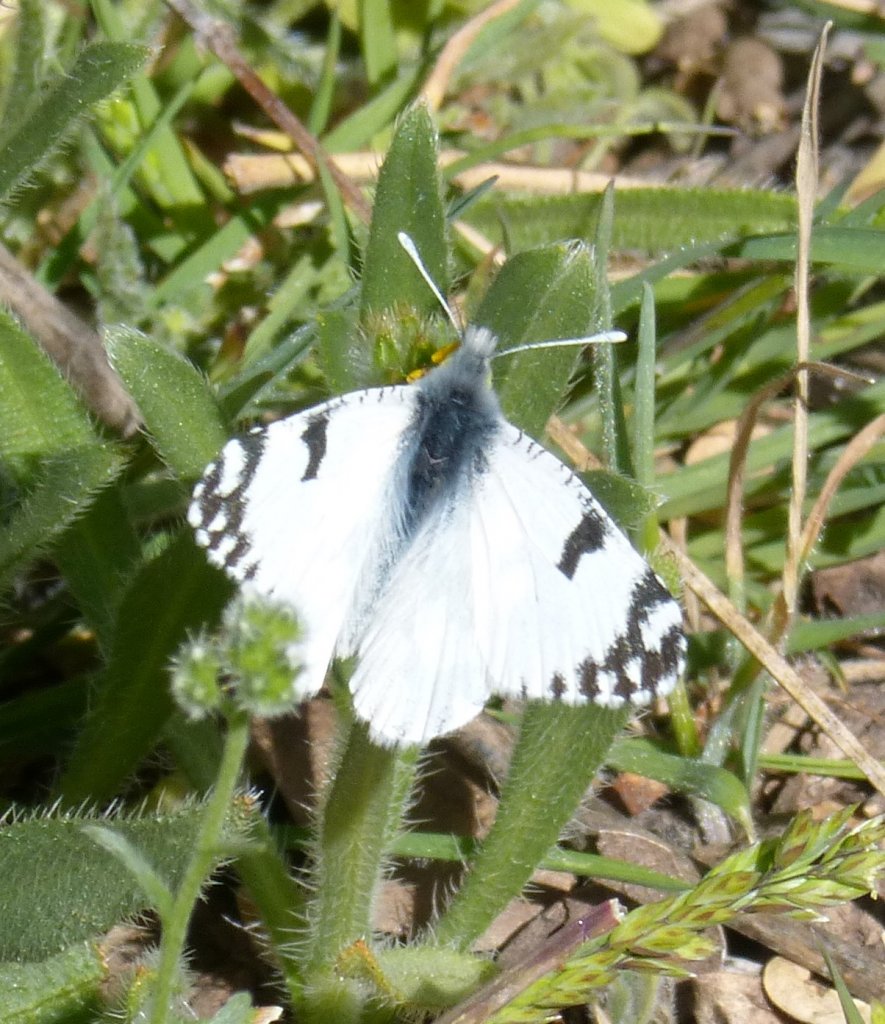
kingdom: Animalia
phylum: Arthropoda
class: Insecta
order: Lepidoptera
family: Pieridae
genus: Euchloe
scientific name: Euchloe lotta
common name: Desert Marble
